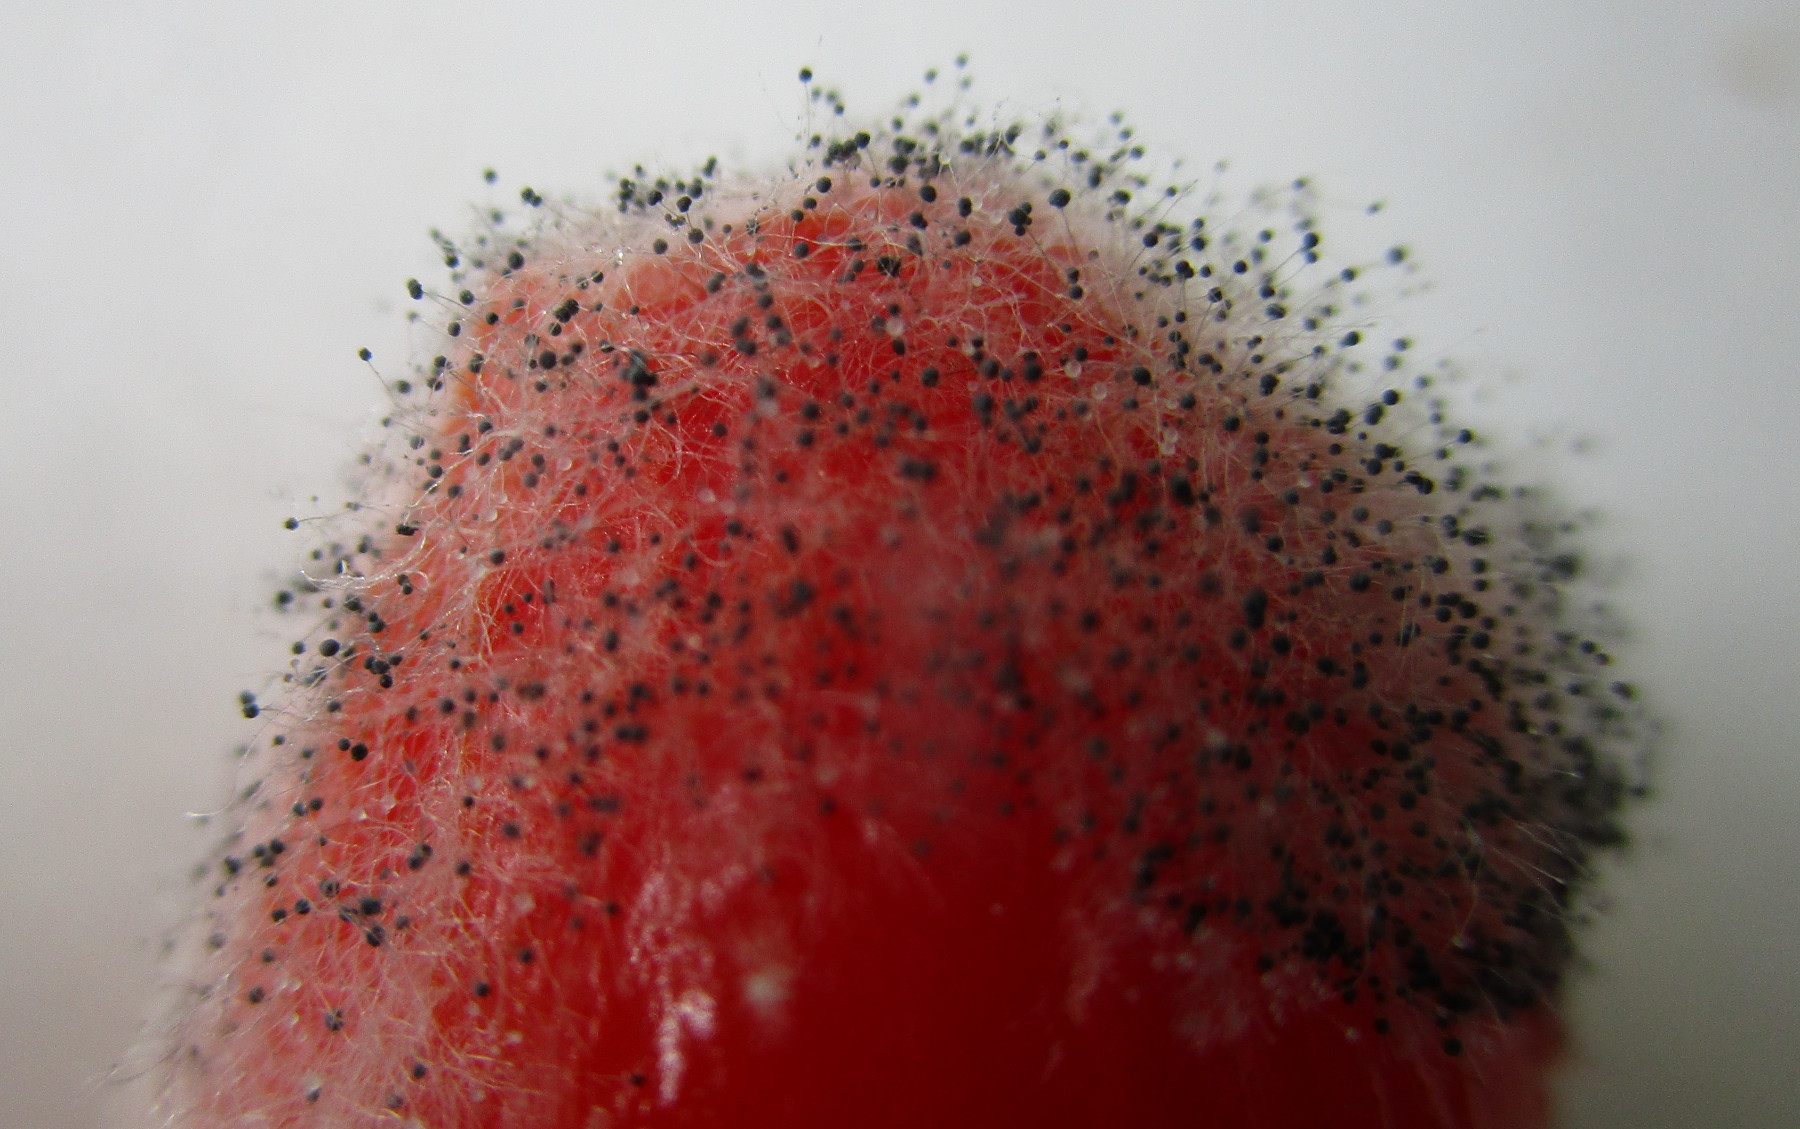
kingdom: Fungi
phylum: Mucoromycota
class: Mucoromycetes
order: Mucorales
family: Mucoraceae
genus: Mucor
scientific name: Mucor
